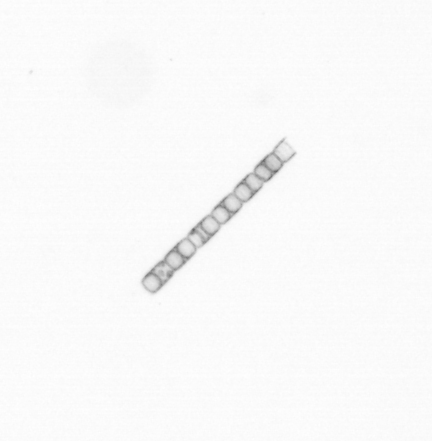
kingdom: Chromista
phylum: Ochrophyta
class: Bacillariophyceae
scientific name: Bacillariophyceae
